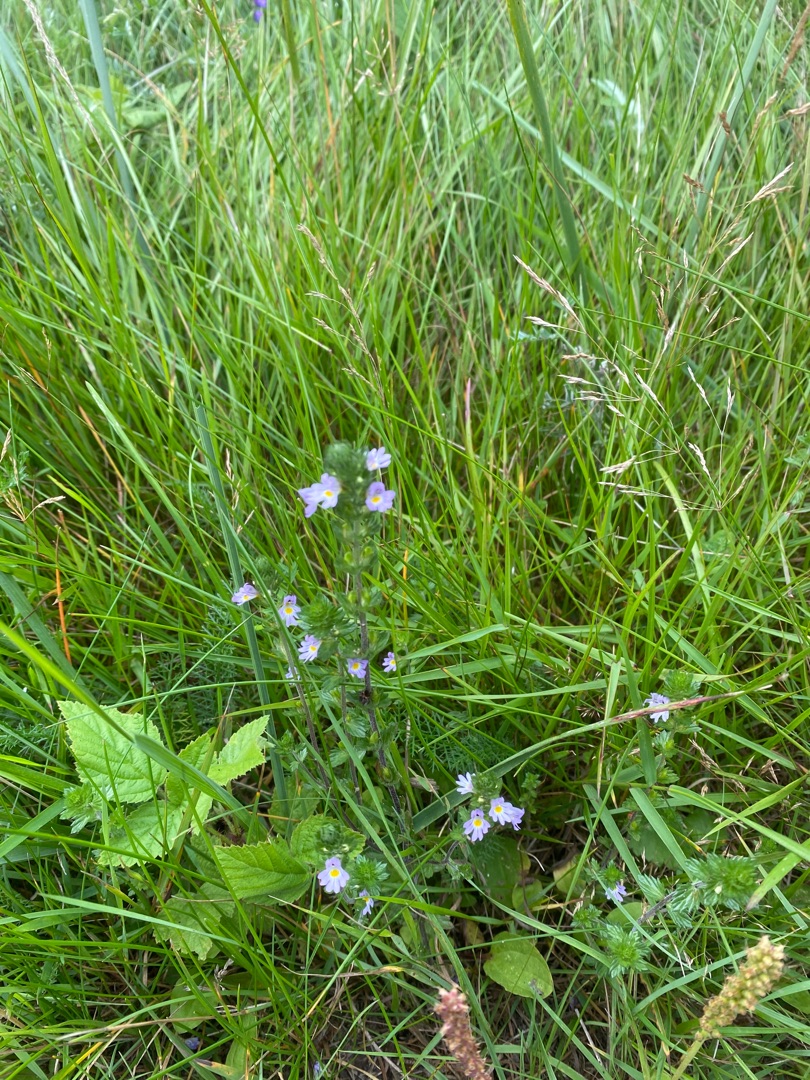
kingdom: Plantae
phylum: Tracheophyta
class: Magnoliopsida
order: Lamiales
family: Orobanchaceae
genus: Euphrasia
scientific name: Euphrasia stricta
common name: Spids øjentrøst
